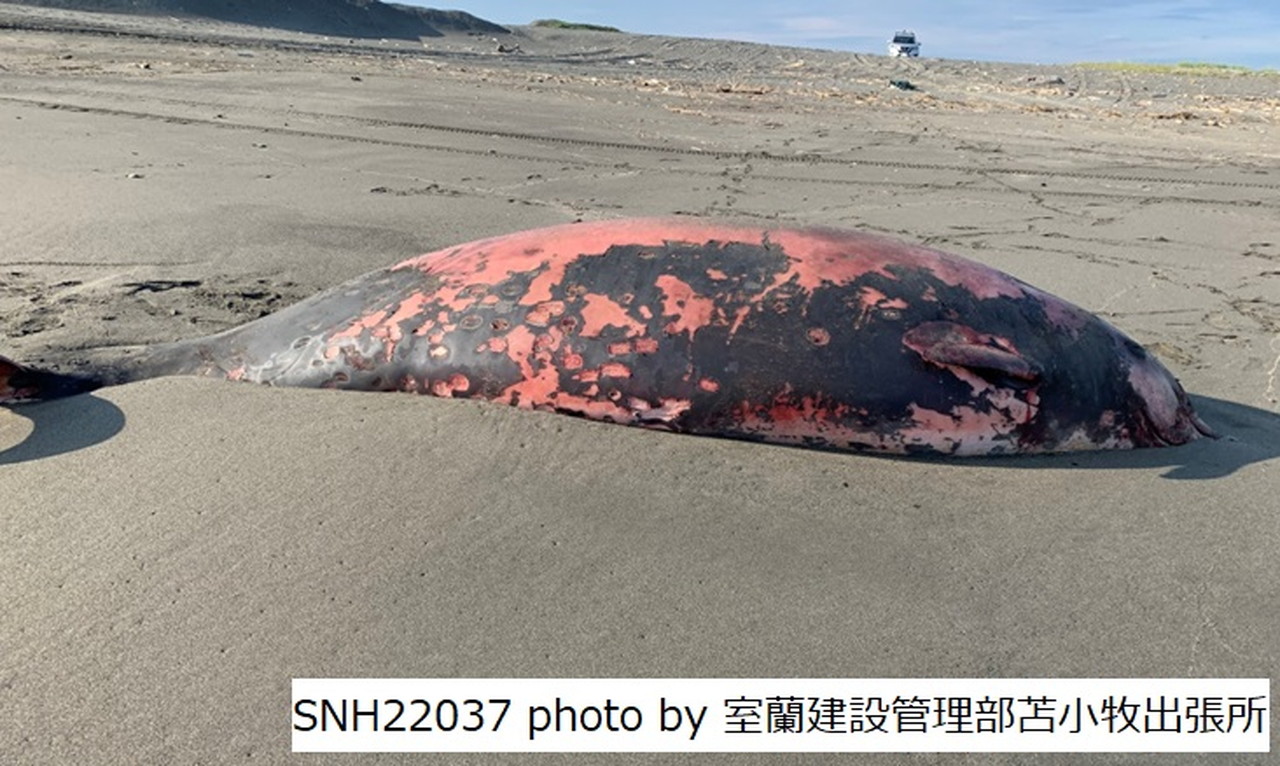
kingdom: Animalia
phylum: Chordata
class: Mammalia
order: Cetacea
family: Hyperoodontidae
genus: Ziphius
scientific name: Ziphius cavirostris
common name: Cuvier's beaked whale
